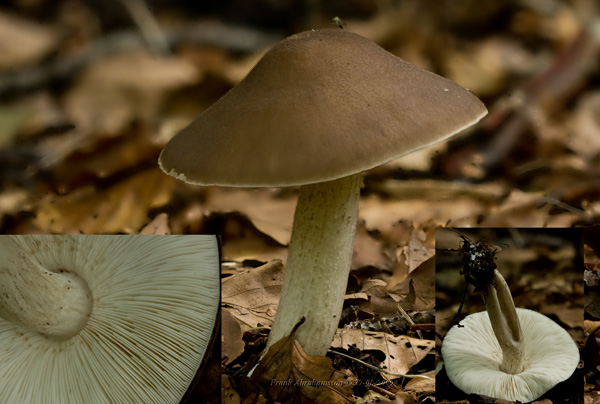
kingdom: Fungi
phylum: Basidiomycota
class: Agaricomycetes
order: Agaricales
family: Pluteaceae
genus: Pluteus
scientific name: Pluteus cervinus
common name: sodfarvet skærmhat
